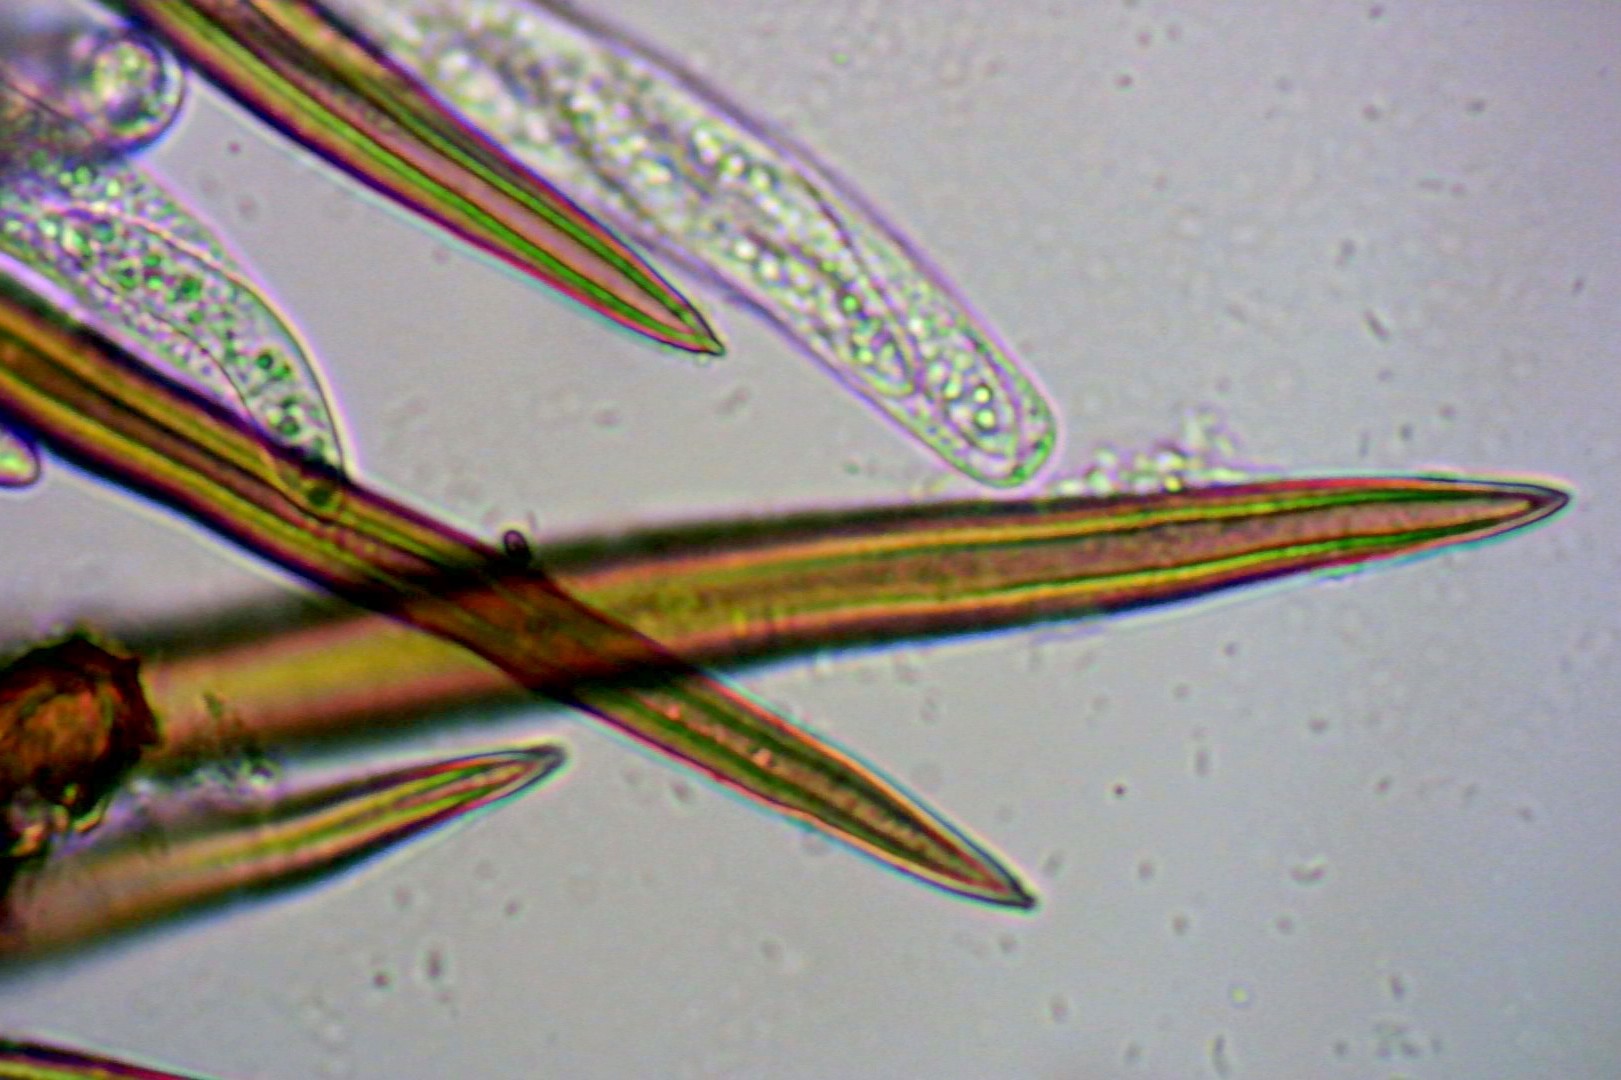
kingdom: Fungi
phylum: Ascomycota
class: Sordariomycetes
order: Sordariales
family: Helminthosphaeriaceae
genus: Echinosphaeria
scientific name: Echinosphaeria canescens
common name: brun børstekerne
